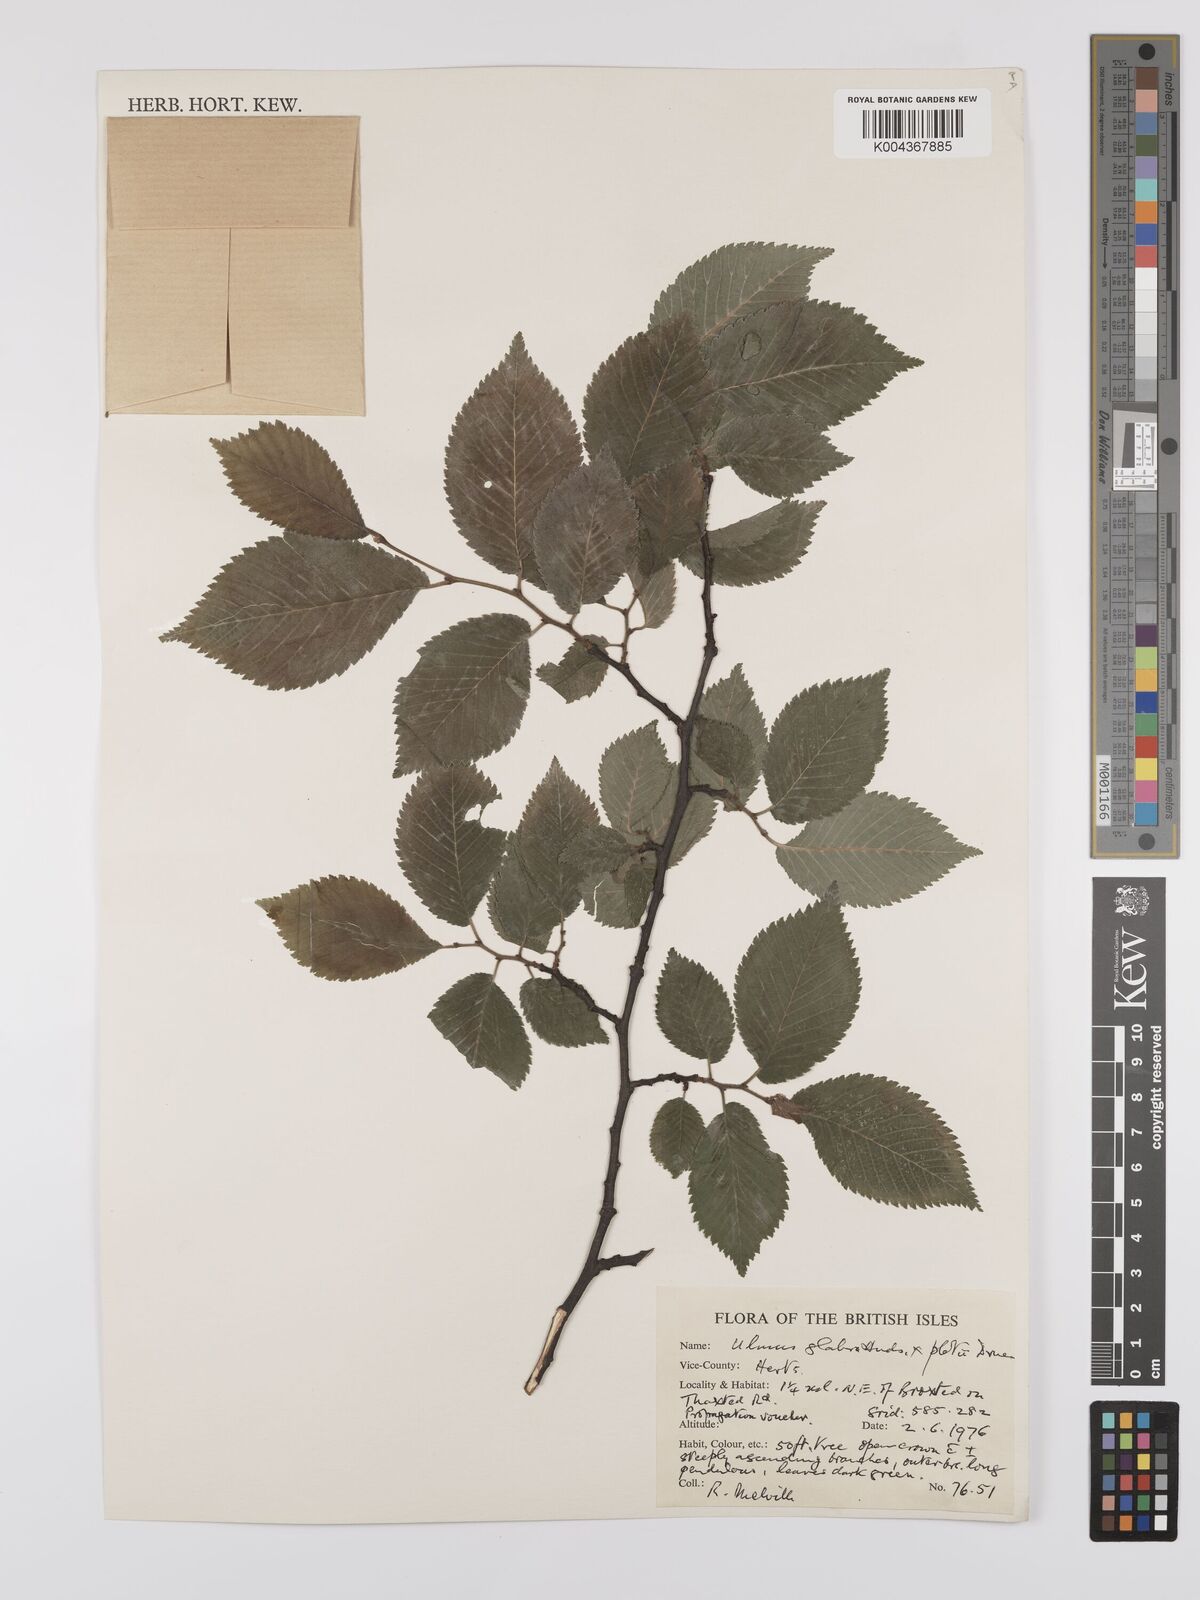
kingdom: Plantae
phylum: Tracheophyta
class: Magnoliopsida
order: Rosales
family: Ulmaceae
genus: Ulmus
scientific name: Ulmus glabra
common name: Wych elm
